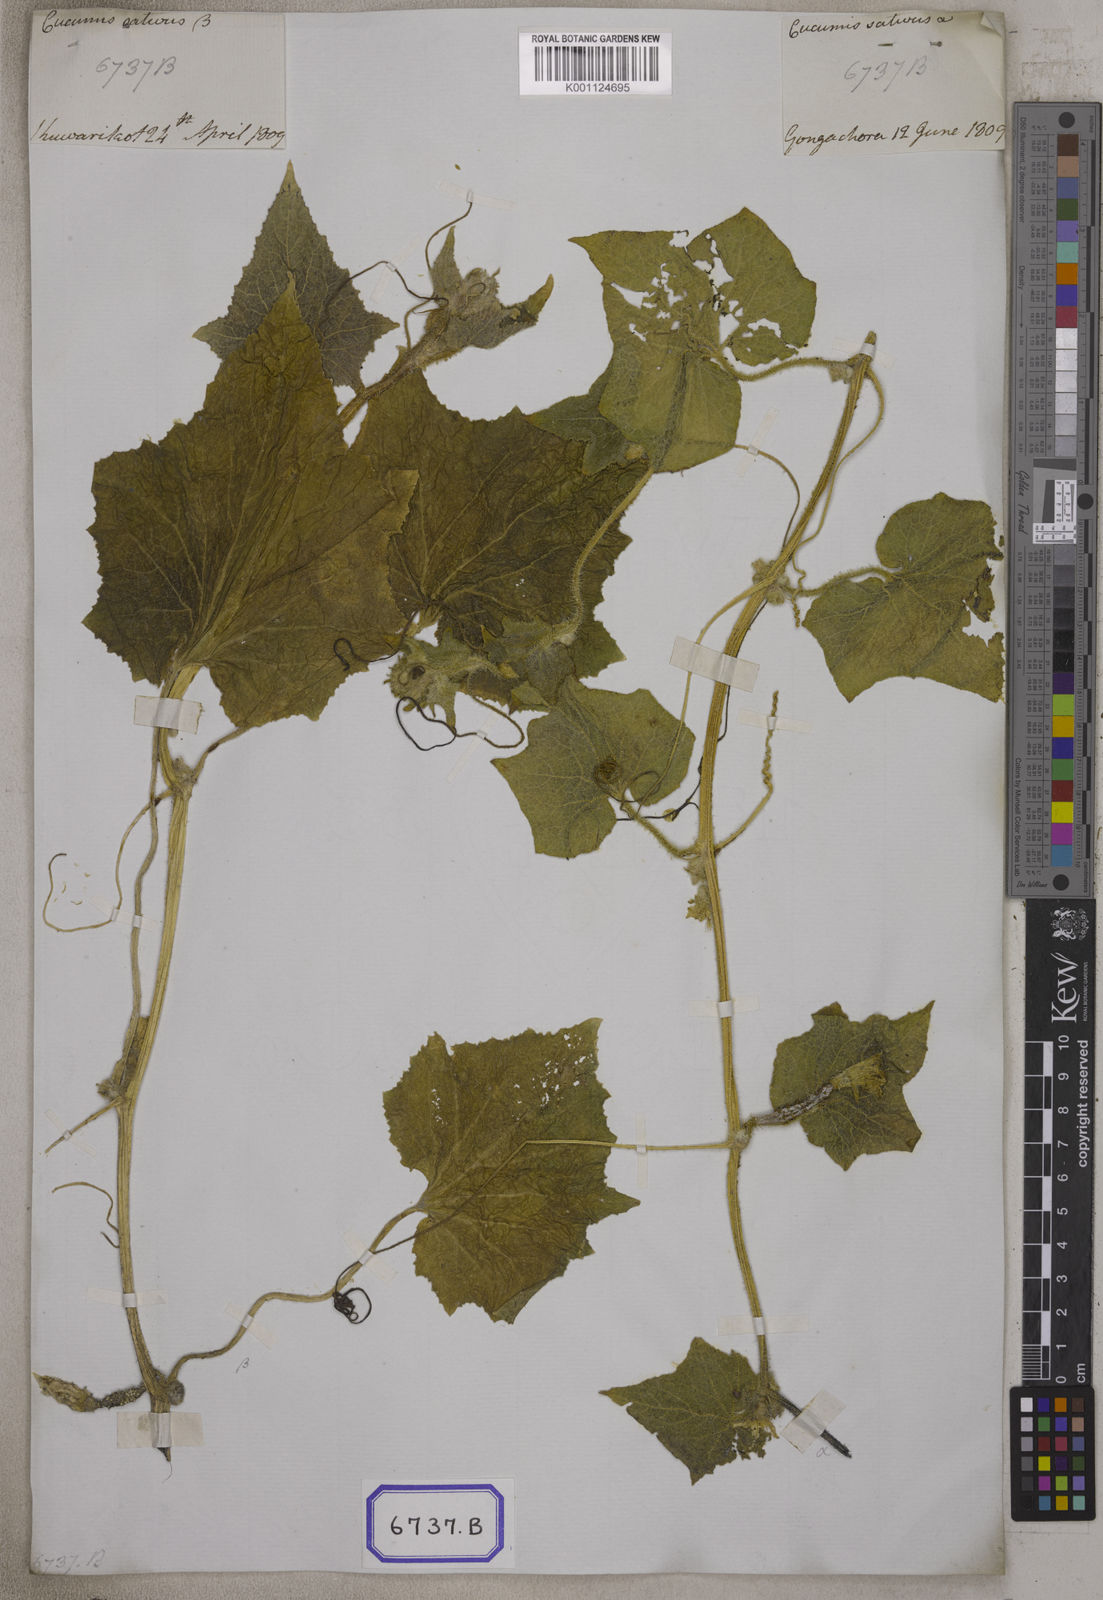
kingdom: Plantae
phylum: Tracheophyta
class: Magnoliopsida
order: Cucurbitales
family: Cucurbitaceae
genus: Cucumis
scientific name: Cucumis sativus
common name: Cucumber
